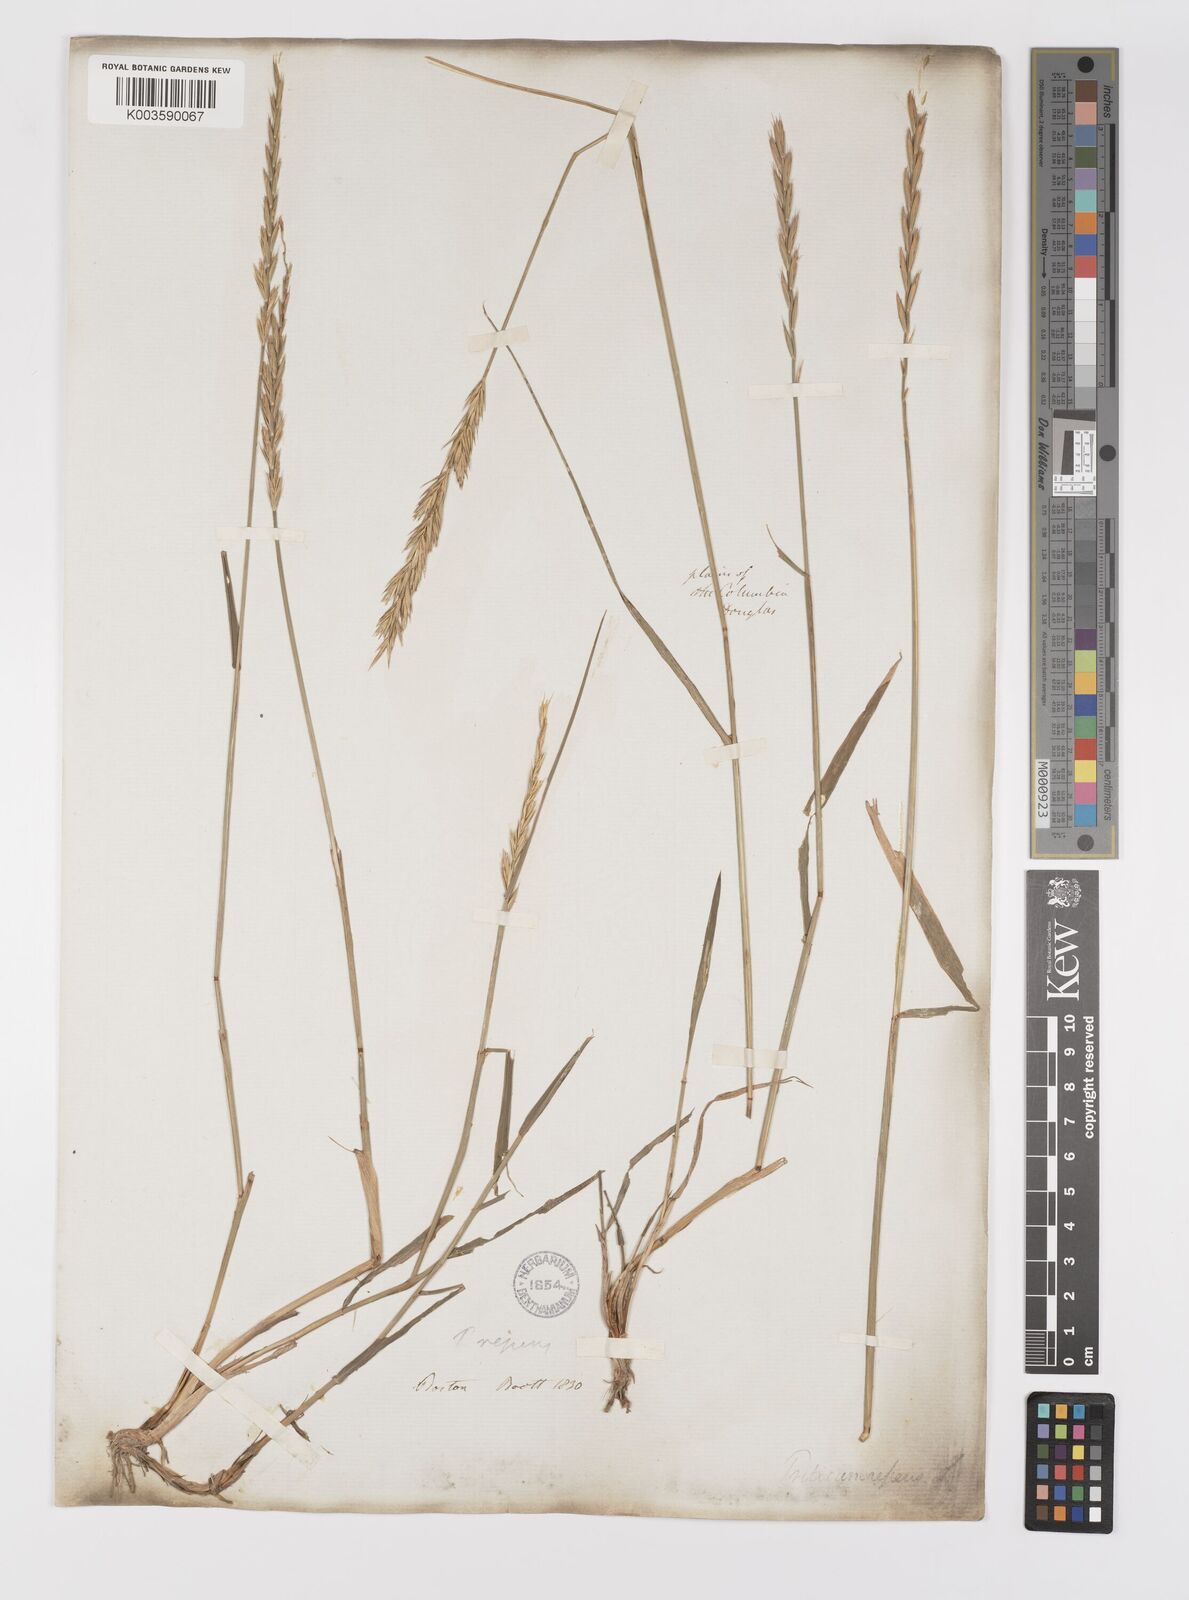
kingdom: Plantae
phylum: Tracheophyta
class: Liliopsida
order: Poales
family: Poaceae
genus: Elymus
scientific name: Elymus repens
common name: Quackgrass
